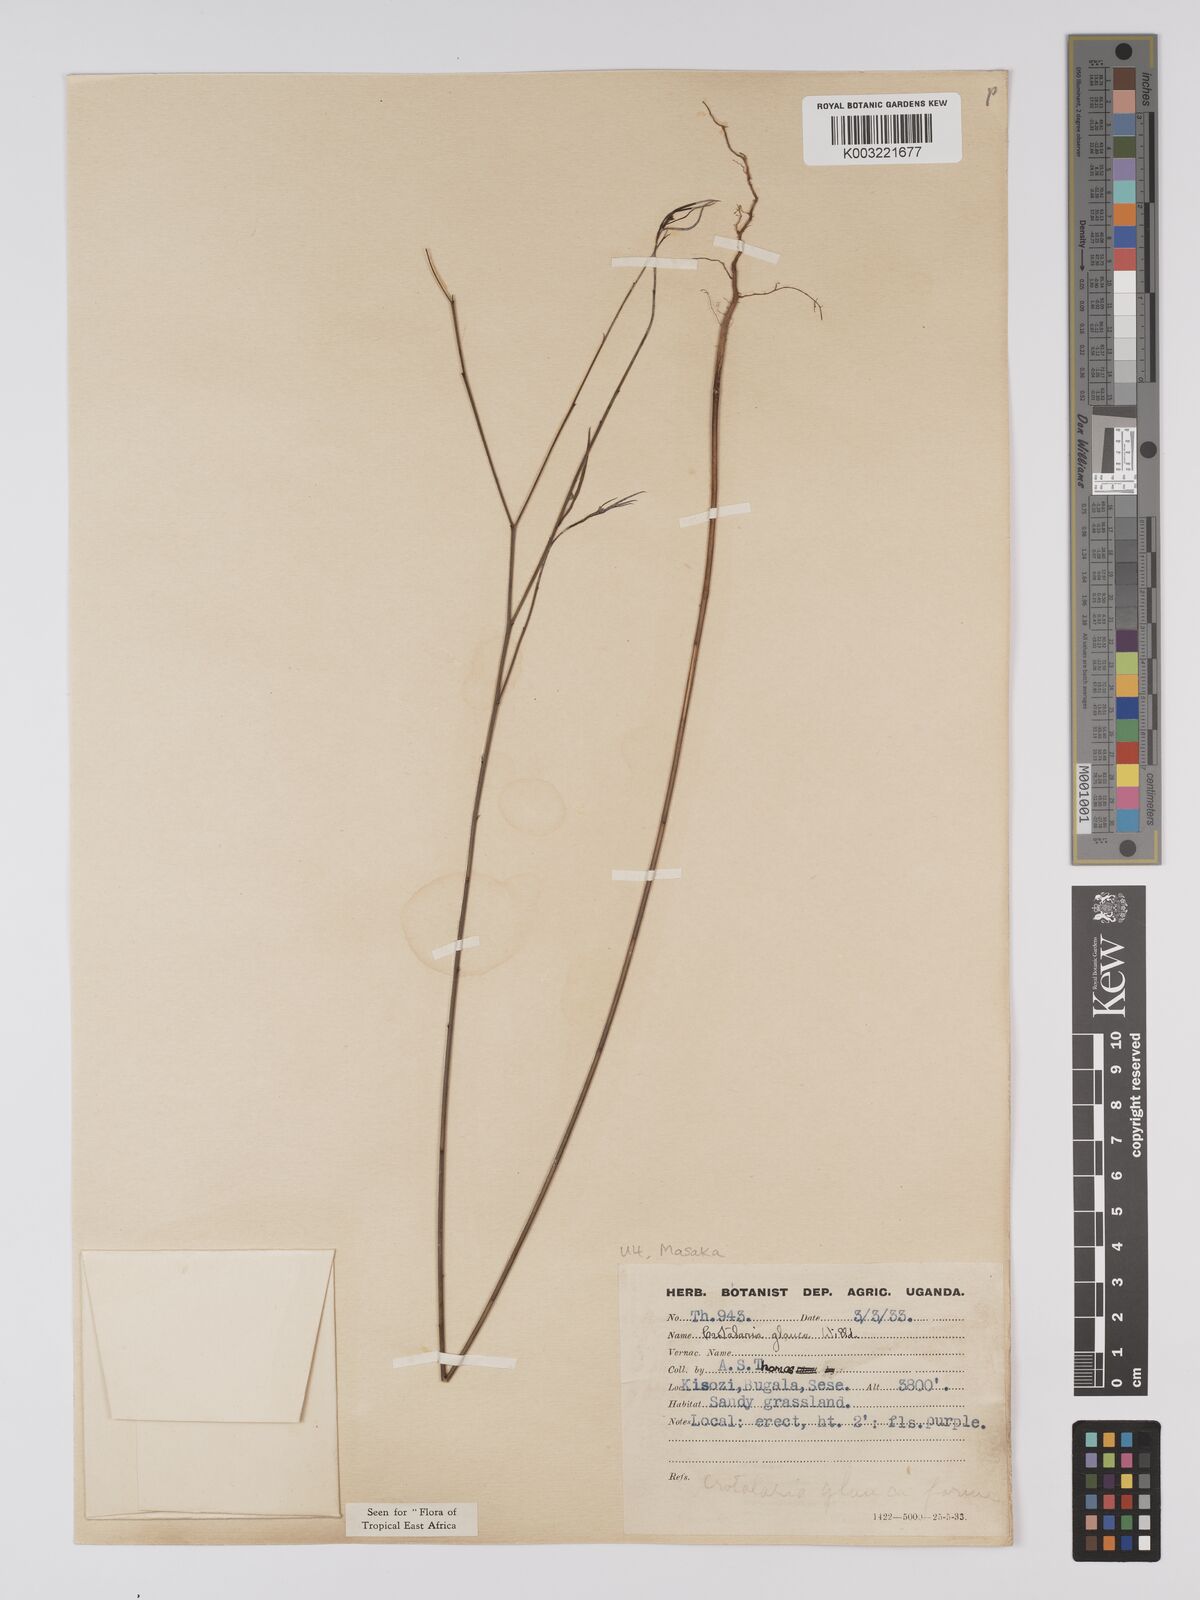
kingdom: Plantae
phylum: Tracheophyta
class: Magnoliopsida
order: Fabales
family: Fabaceae
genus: Crotalaria
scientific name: Crotalaria glauca
